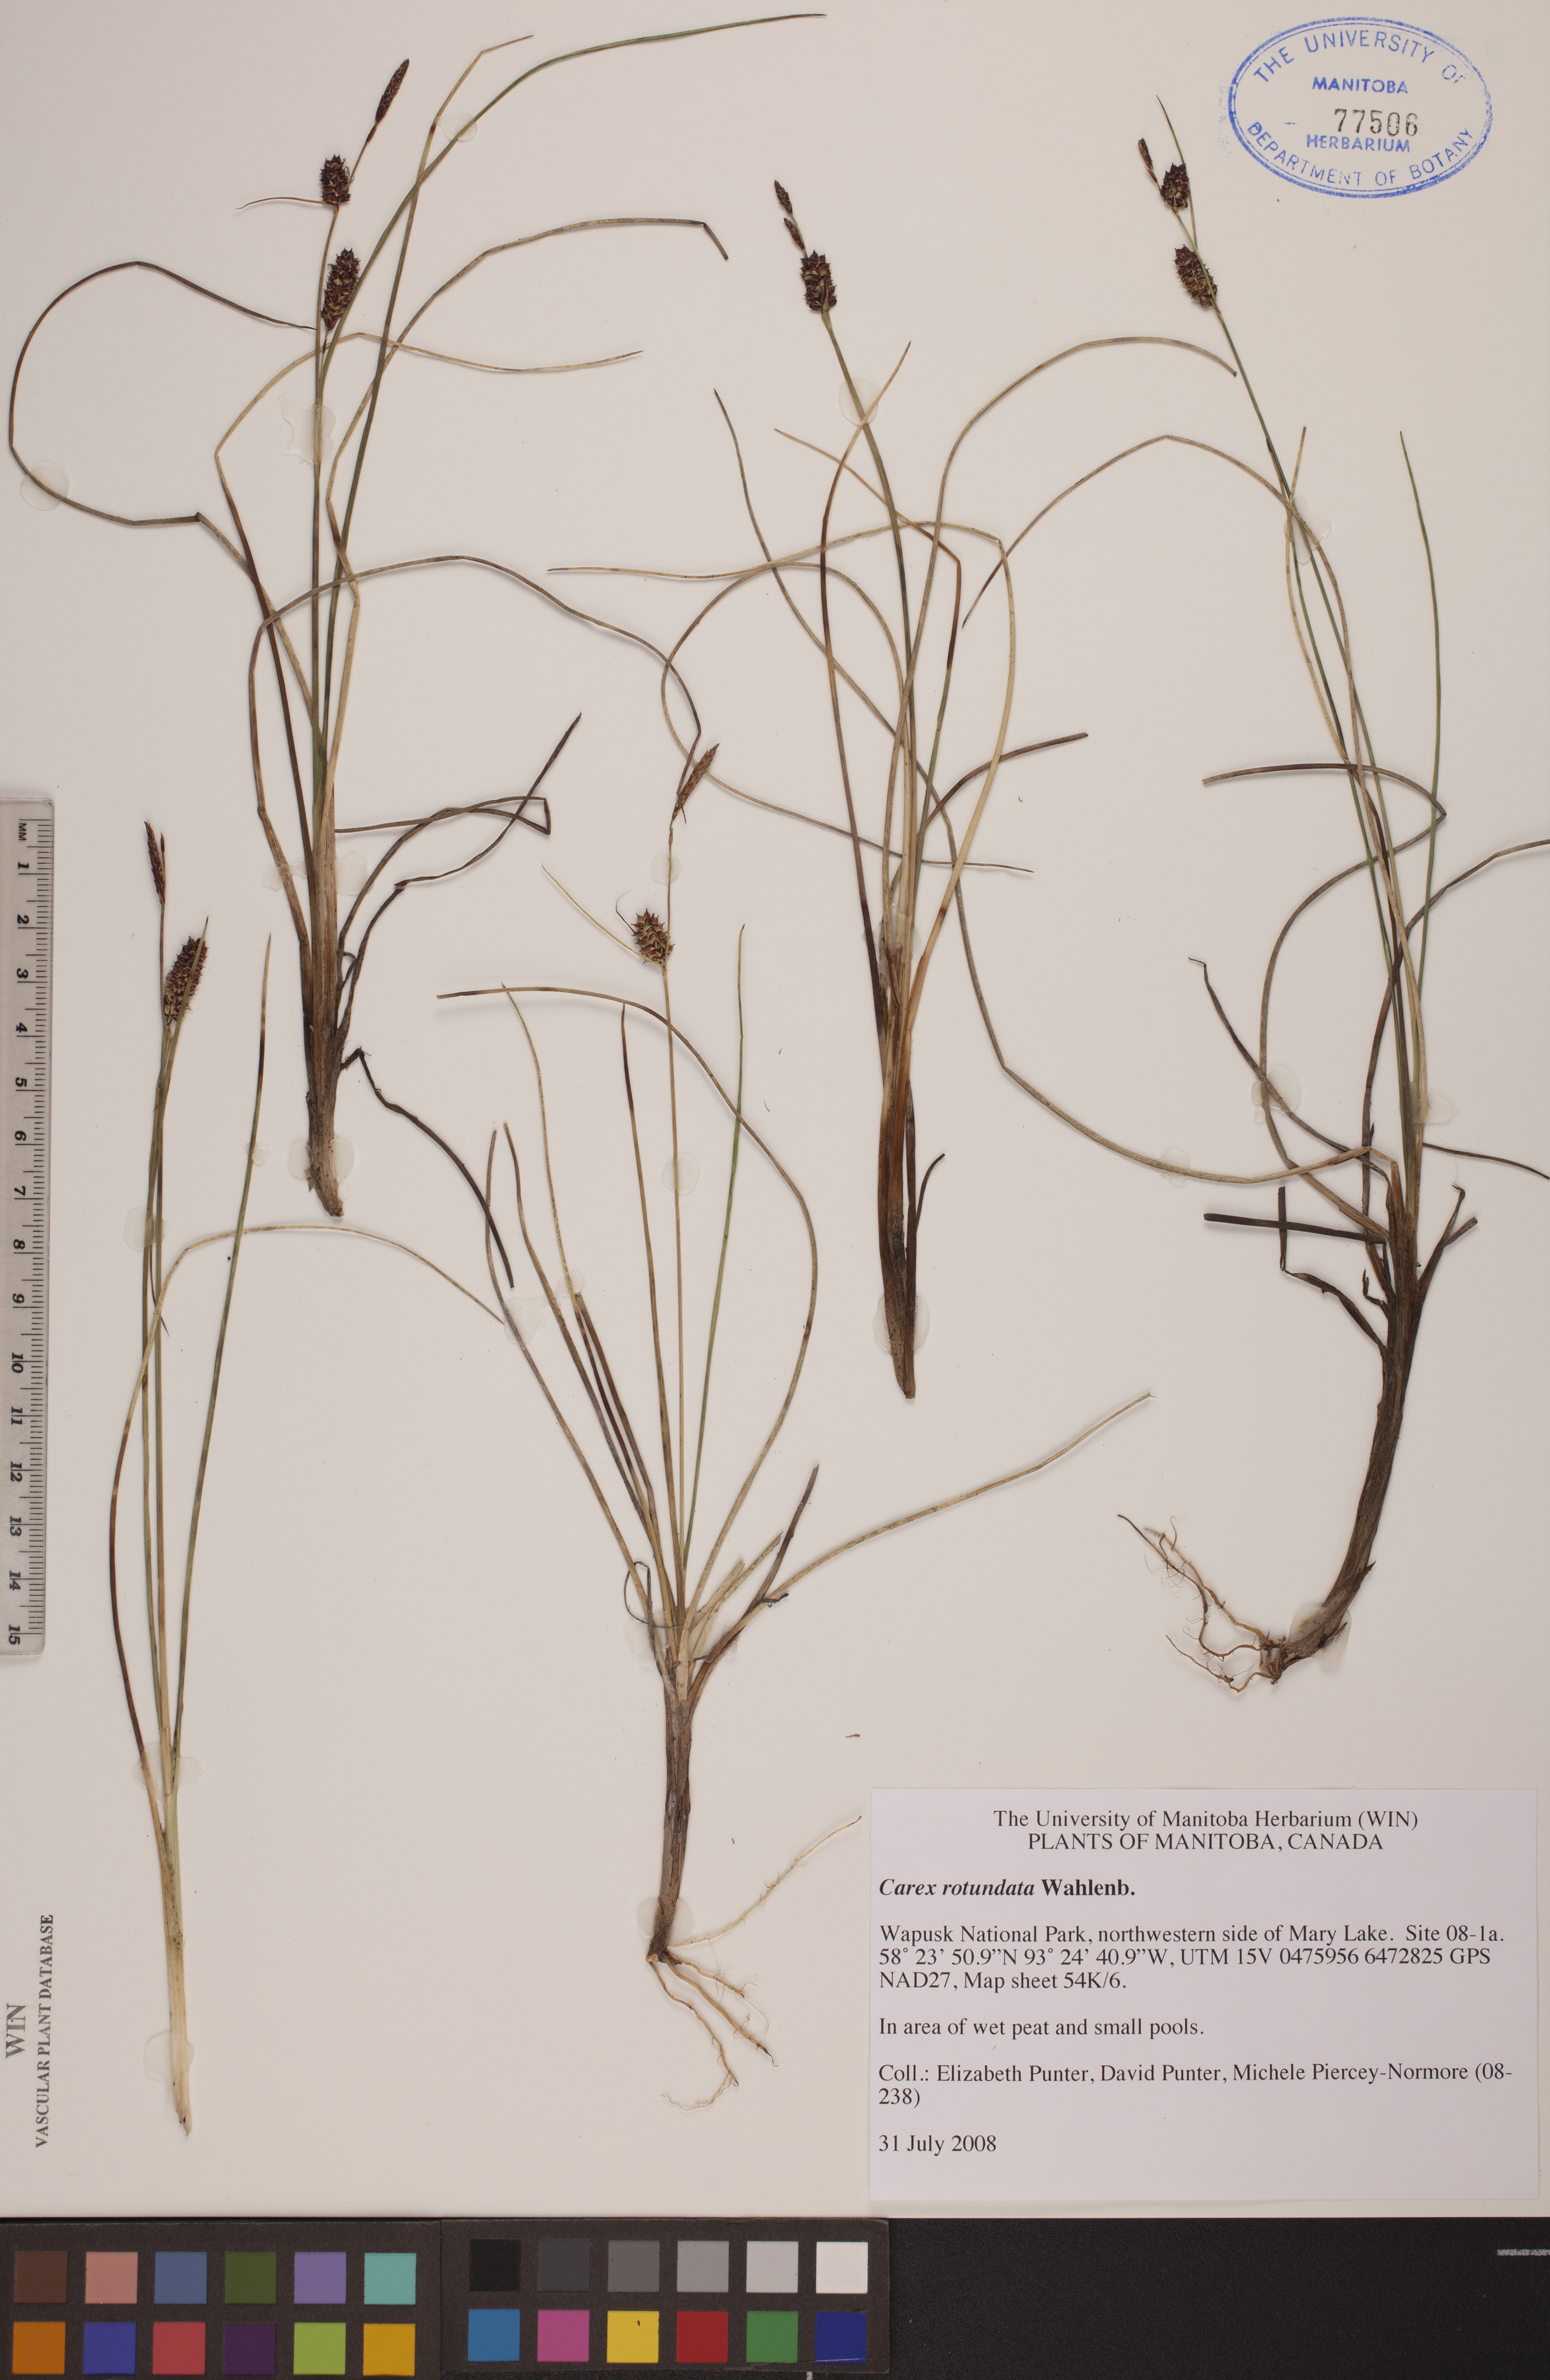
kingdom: Plantae
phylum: Tracheophyta
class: Liliopsida
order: Poales
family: Cyperaceae
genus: Carex
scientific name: Carex rotundata
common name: Round-fruited sedge
